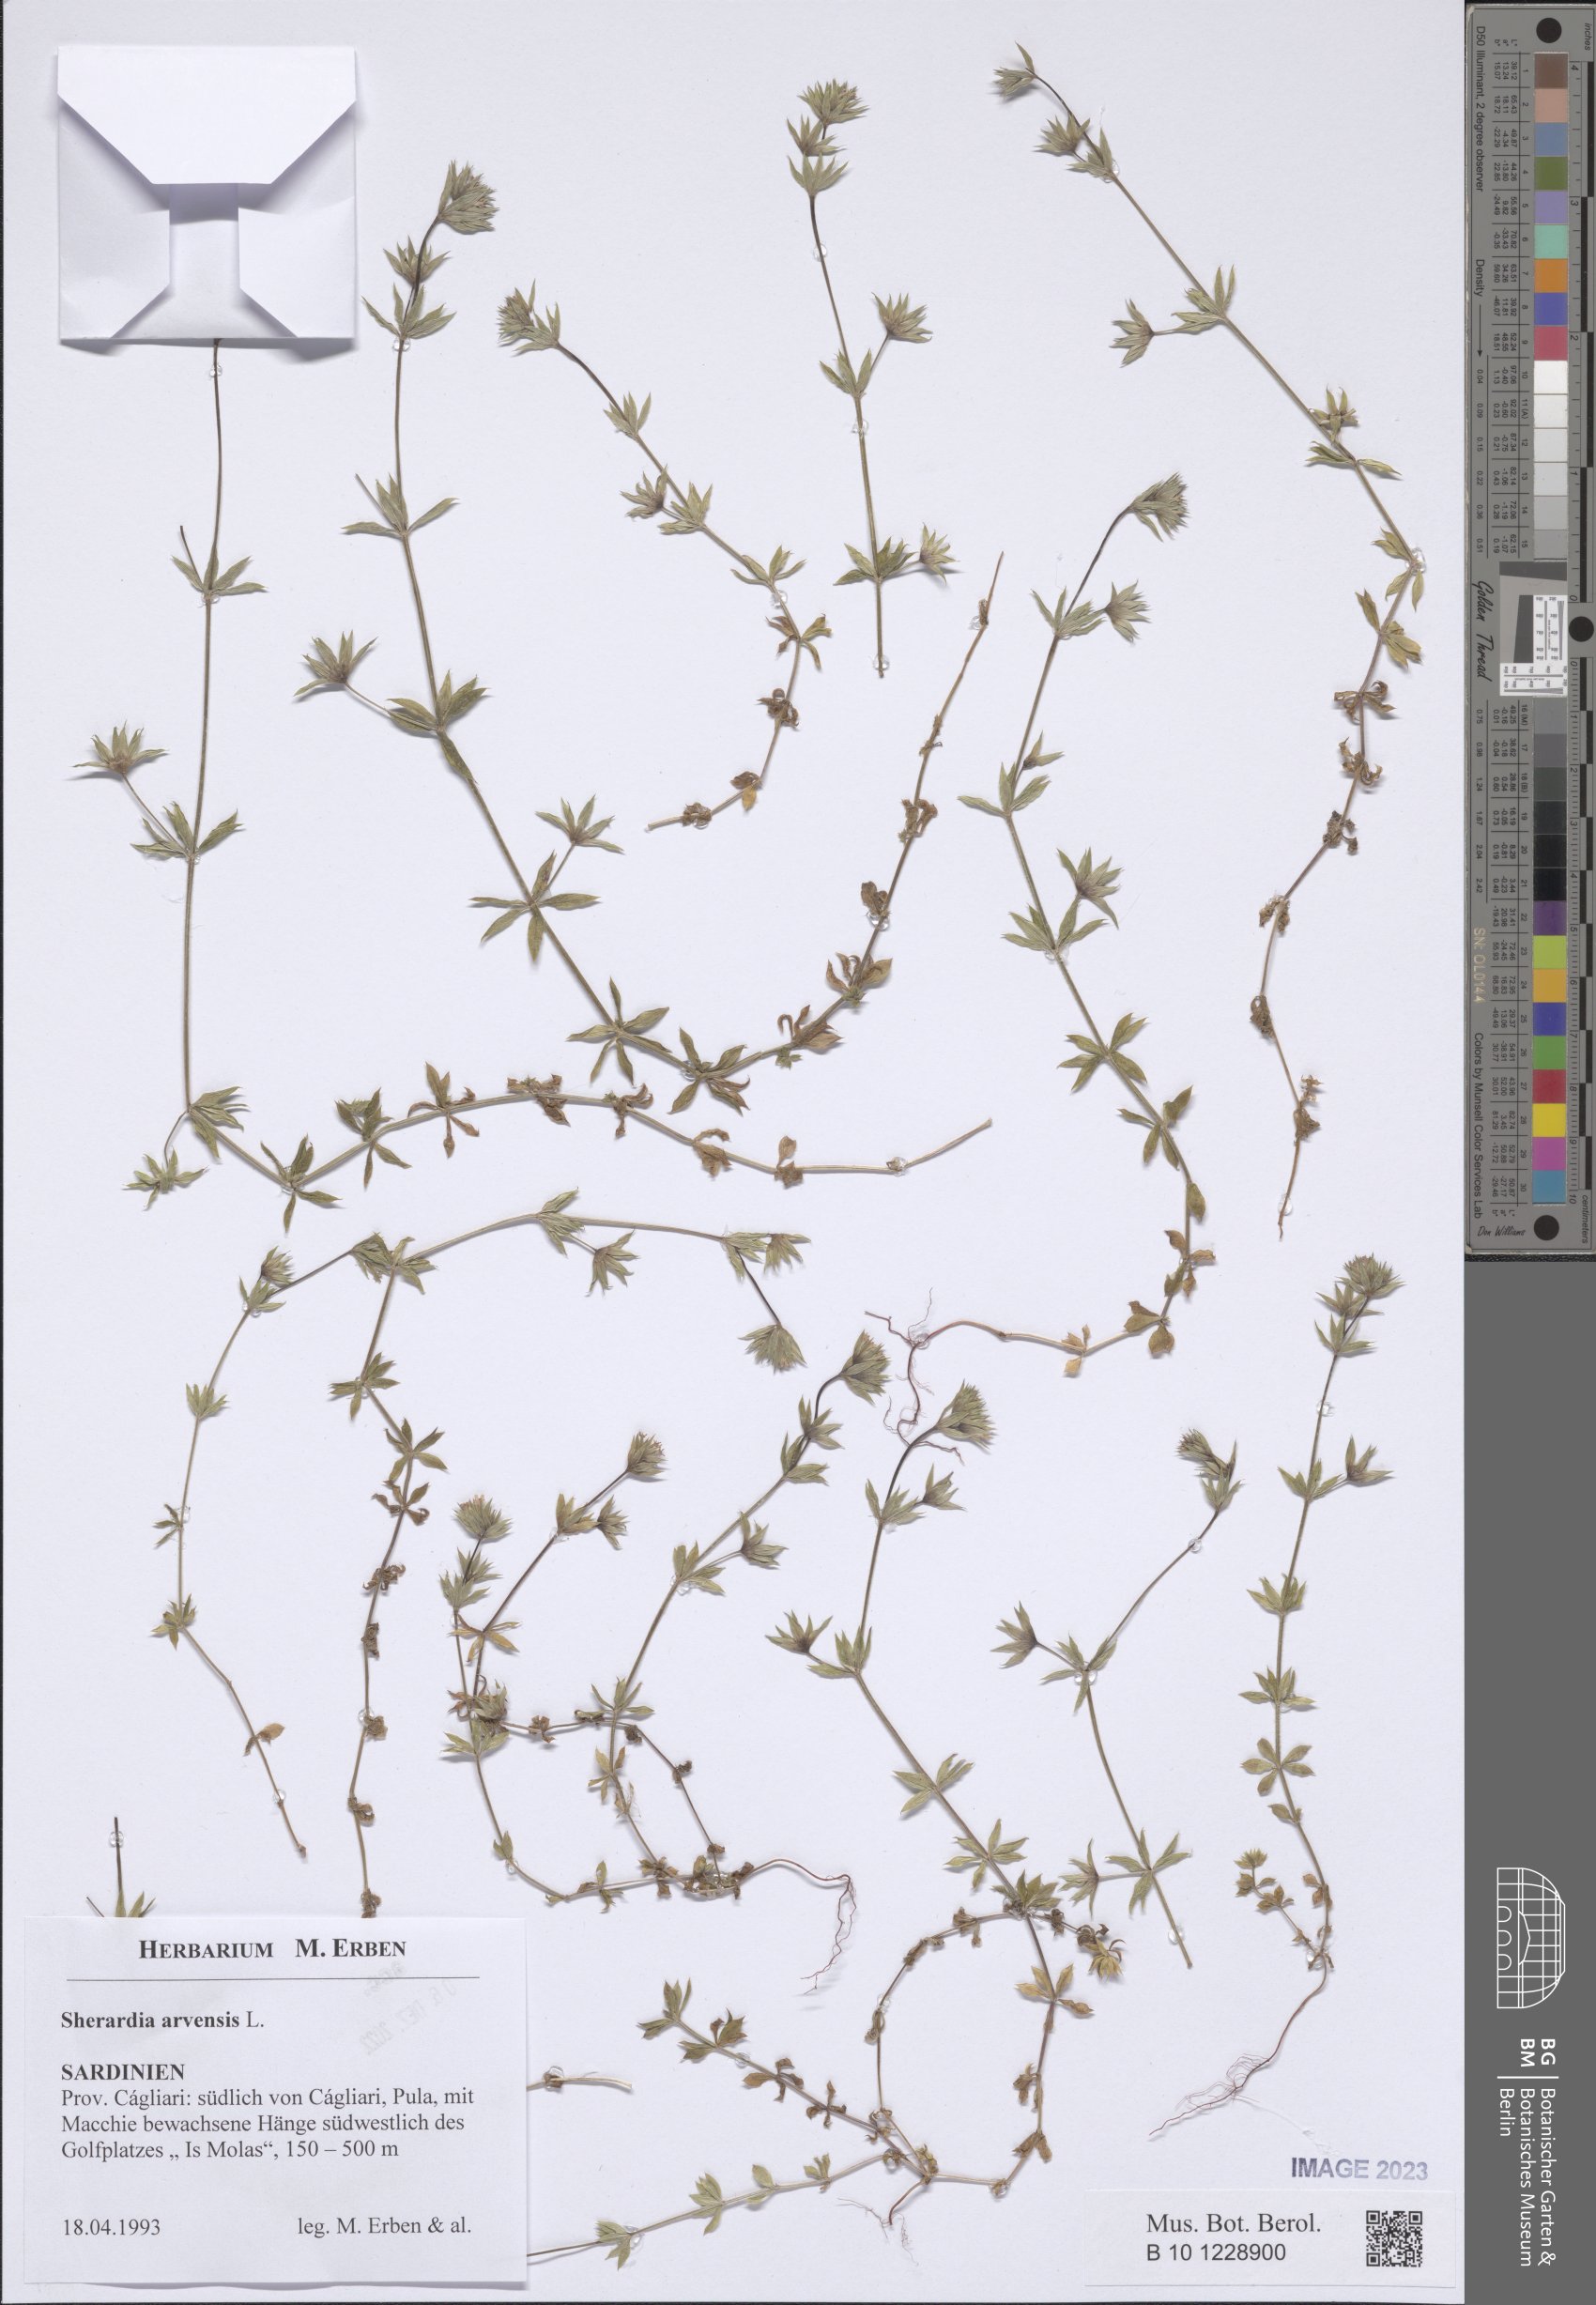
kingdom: Plantae
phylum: Tracheophyta
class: Magnoliopsida
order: Gentianales
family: Rubiaceae
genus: Sherardia
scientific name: Sherardia arvensis
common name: Field madder
